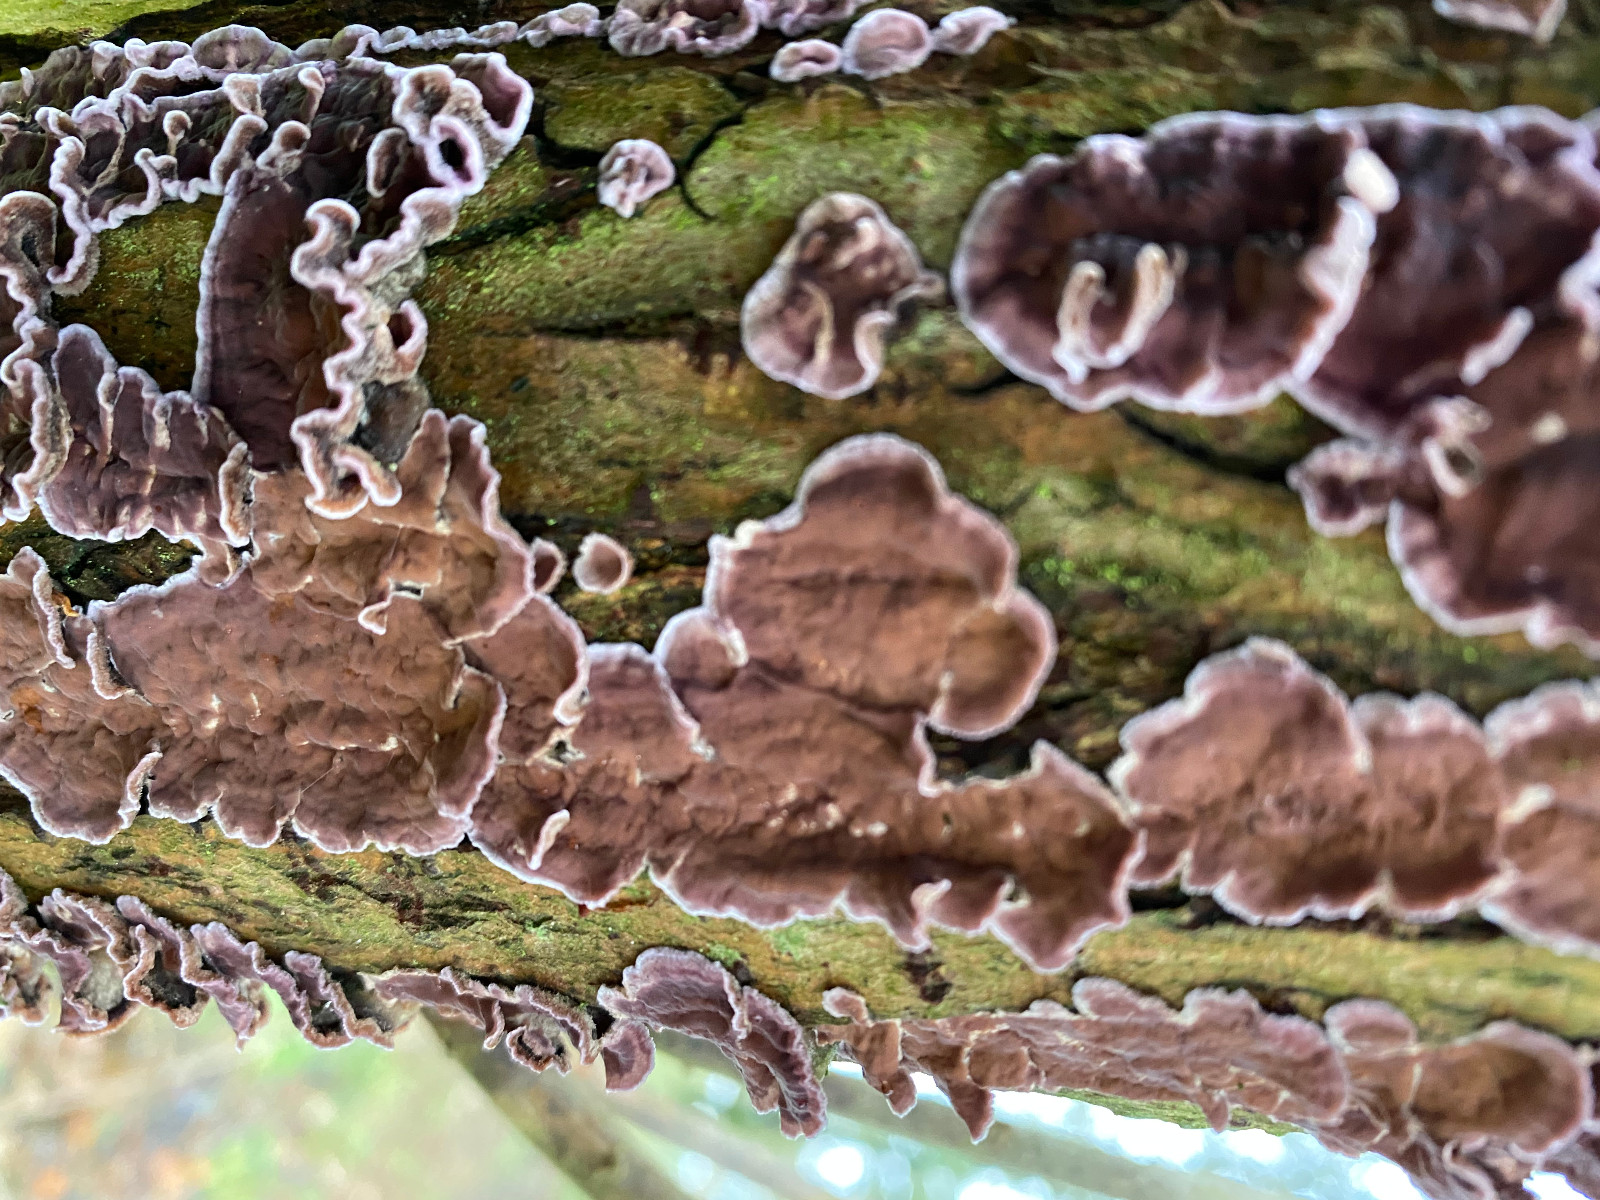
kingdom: Fungi
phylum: Basidiomycota
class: Agaricomycetes
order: Agaricales
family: Cyphellaceae
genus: Chondrostereum
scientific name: Chondrostereum purpureum
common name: purpurlædersvamp
